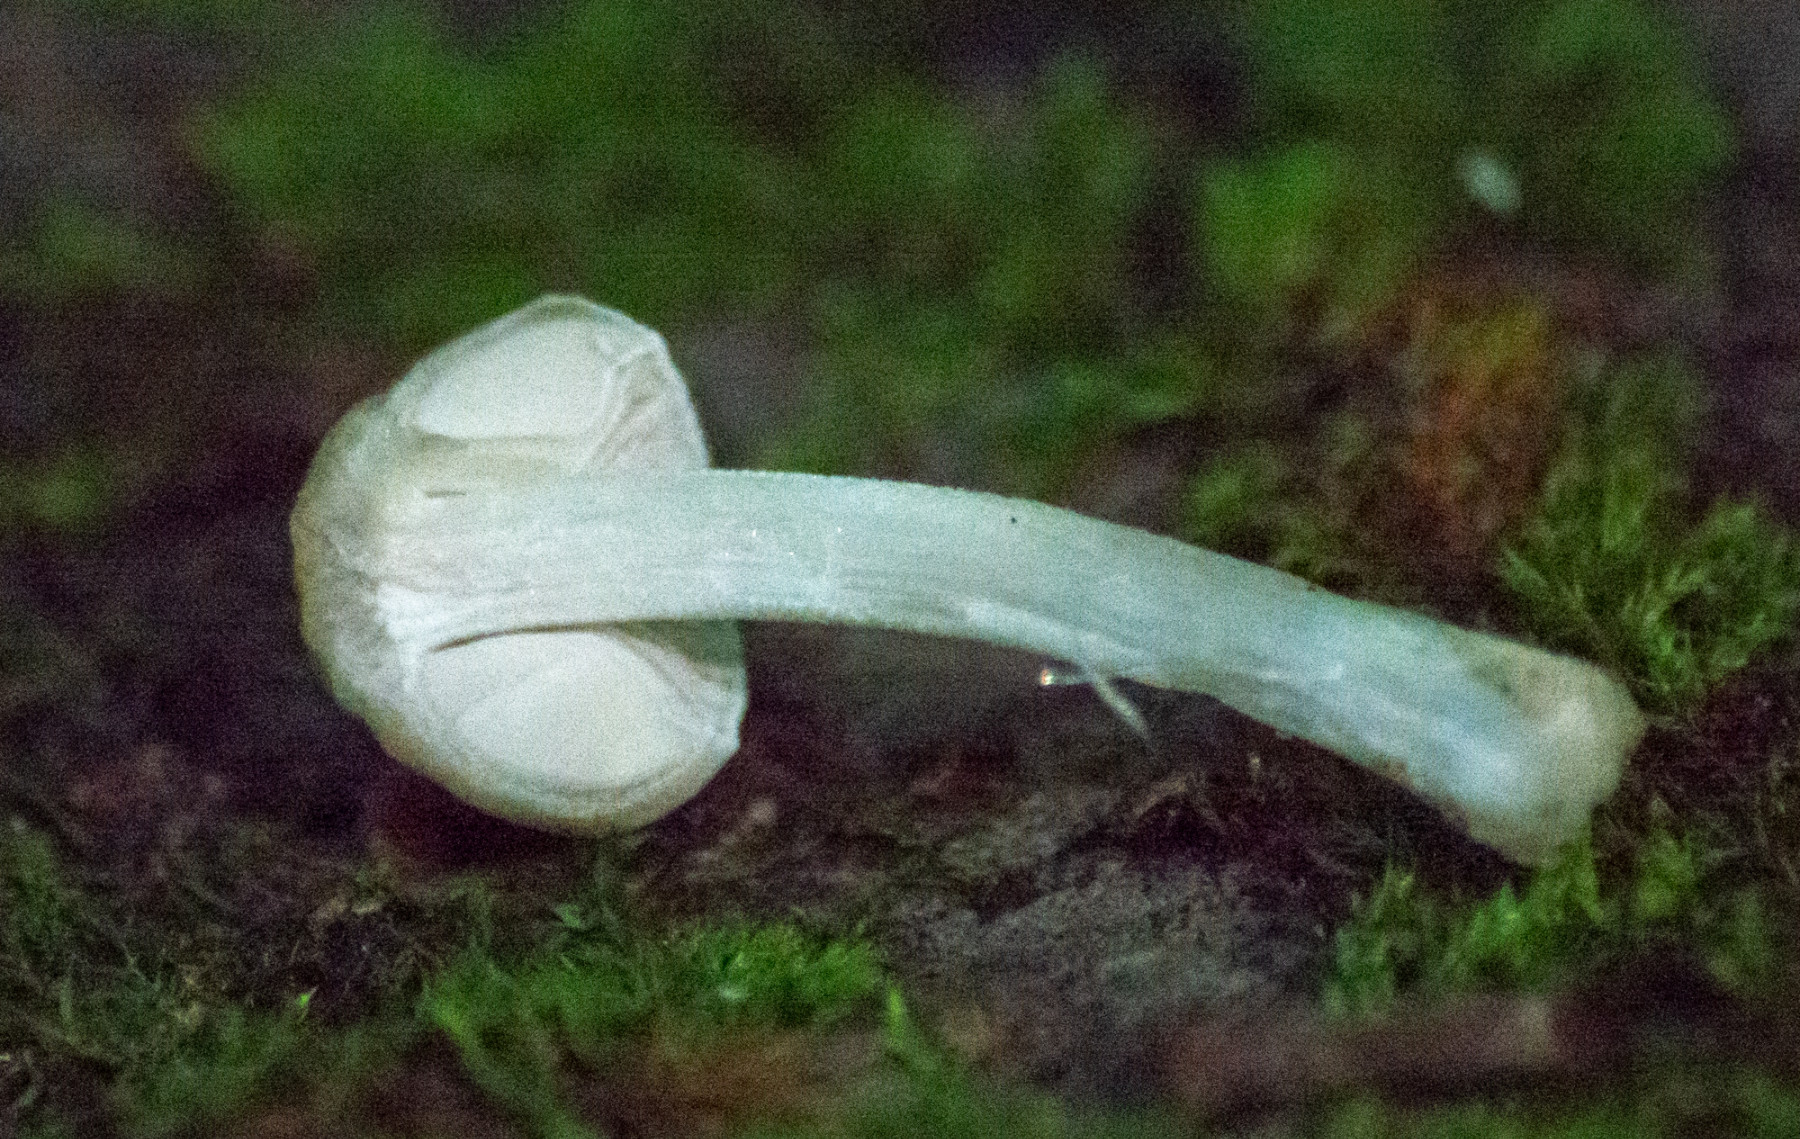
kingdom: Fungi
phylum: Basidiomycota
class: Agaricomycetes
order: Agaricales
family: Pluteaceae
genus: Pluteus
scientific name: Pluteus
